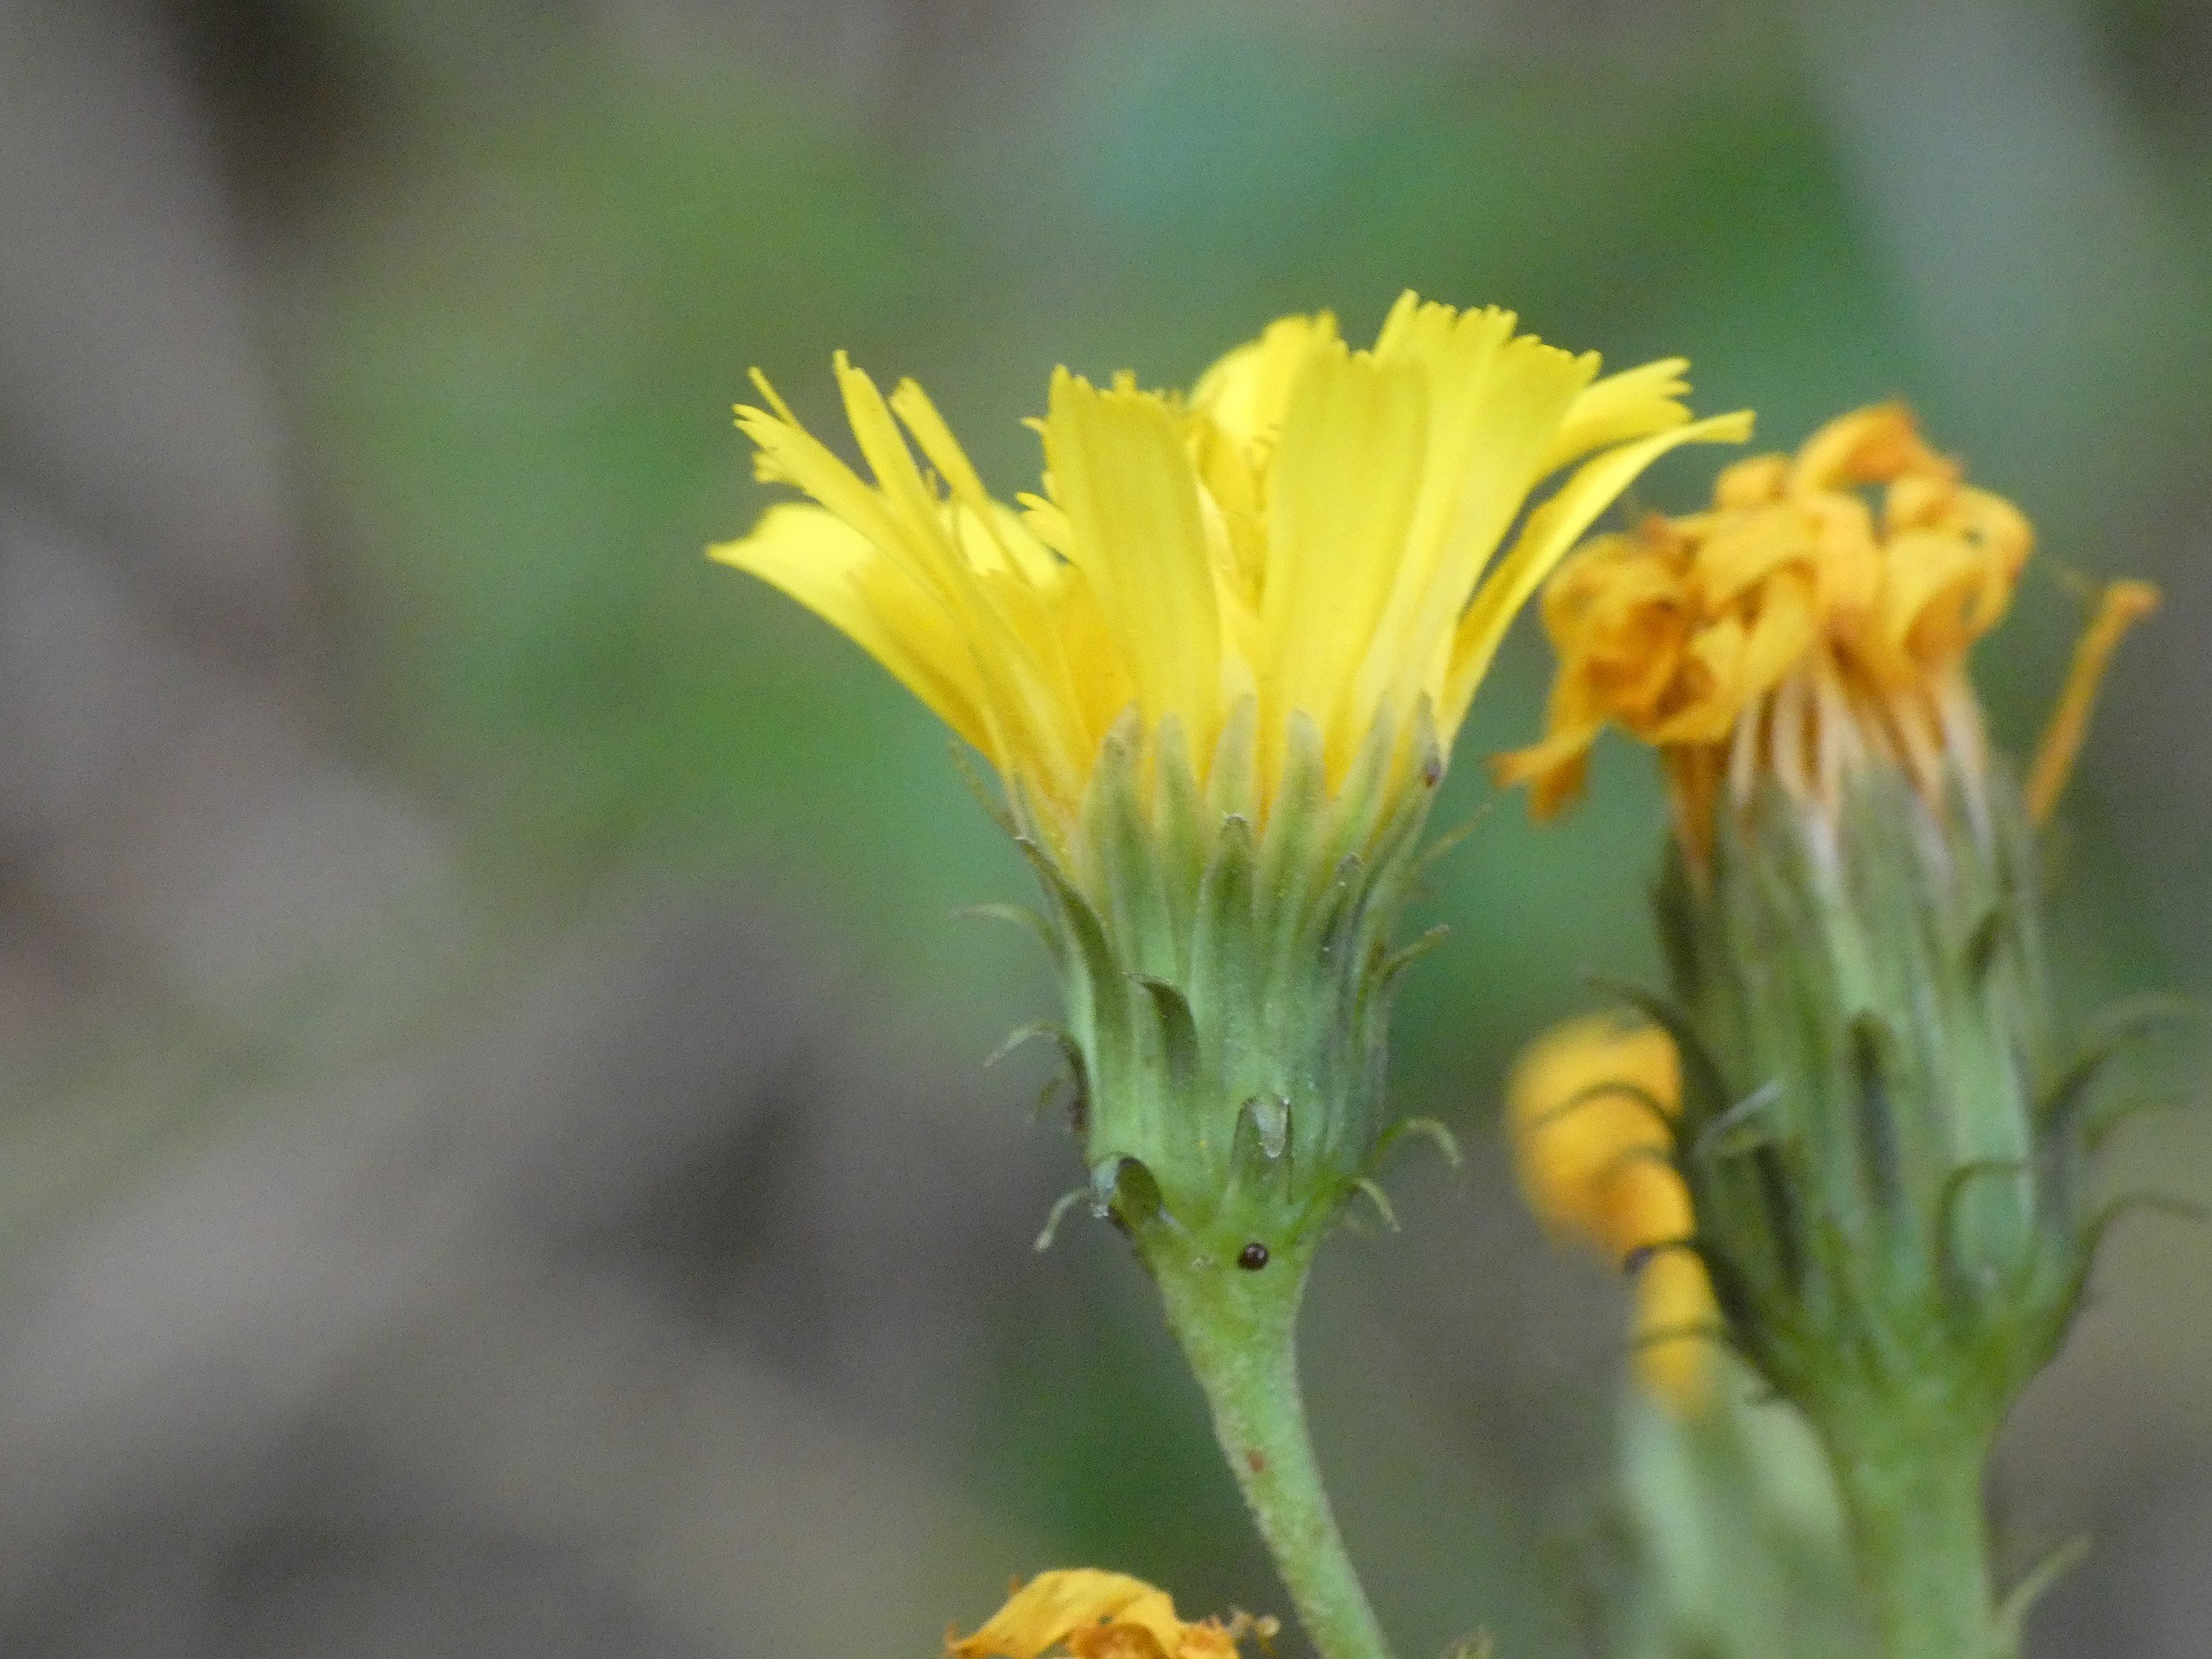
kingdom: Plantae
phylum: Tracheophyta
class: Magnoliopsida
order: Asterales
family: Asteraceae
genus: Hieracium
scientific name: Hieracium umbellatum
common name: Smalbladet høgeurt
